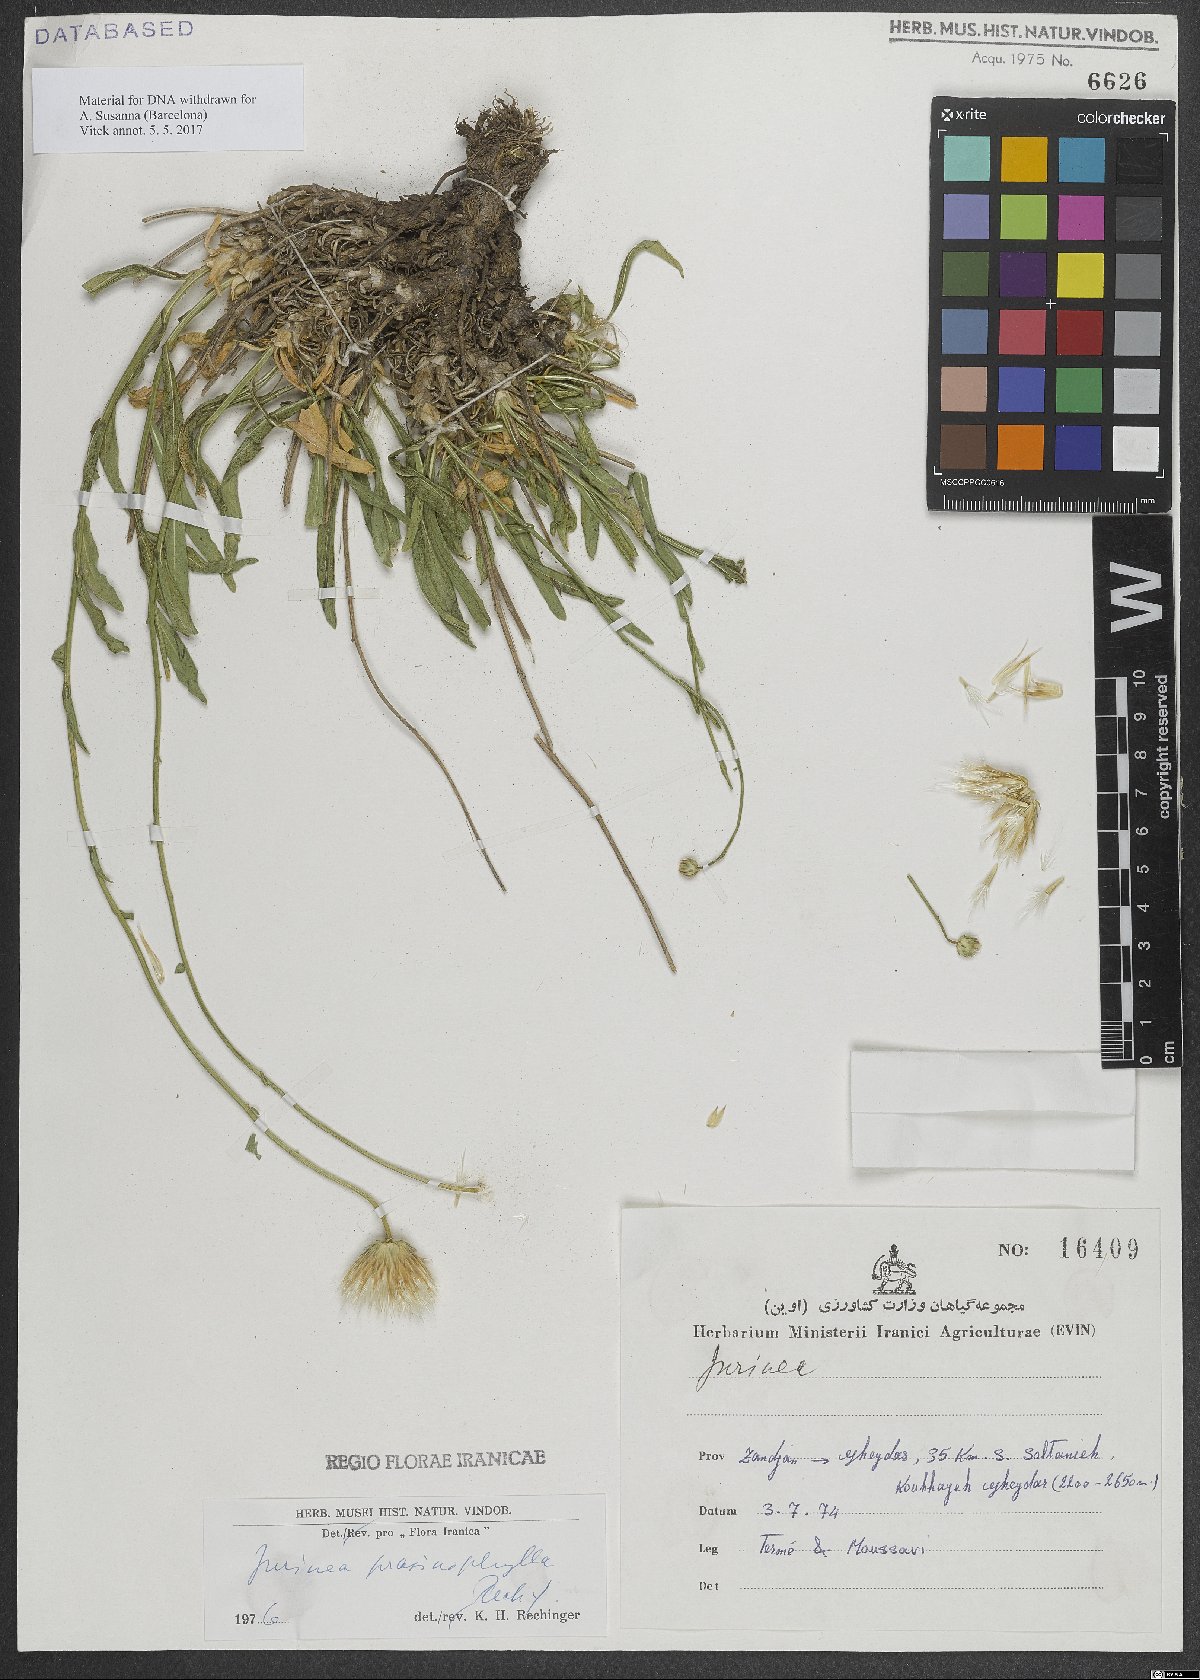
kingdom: Plantae
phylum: Tracheophyta
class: Magnoliopsida
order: Asterales
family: Asteraceae
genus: Jurinea
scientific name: Jurinea prasinophylla
